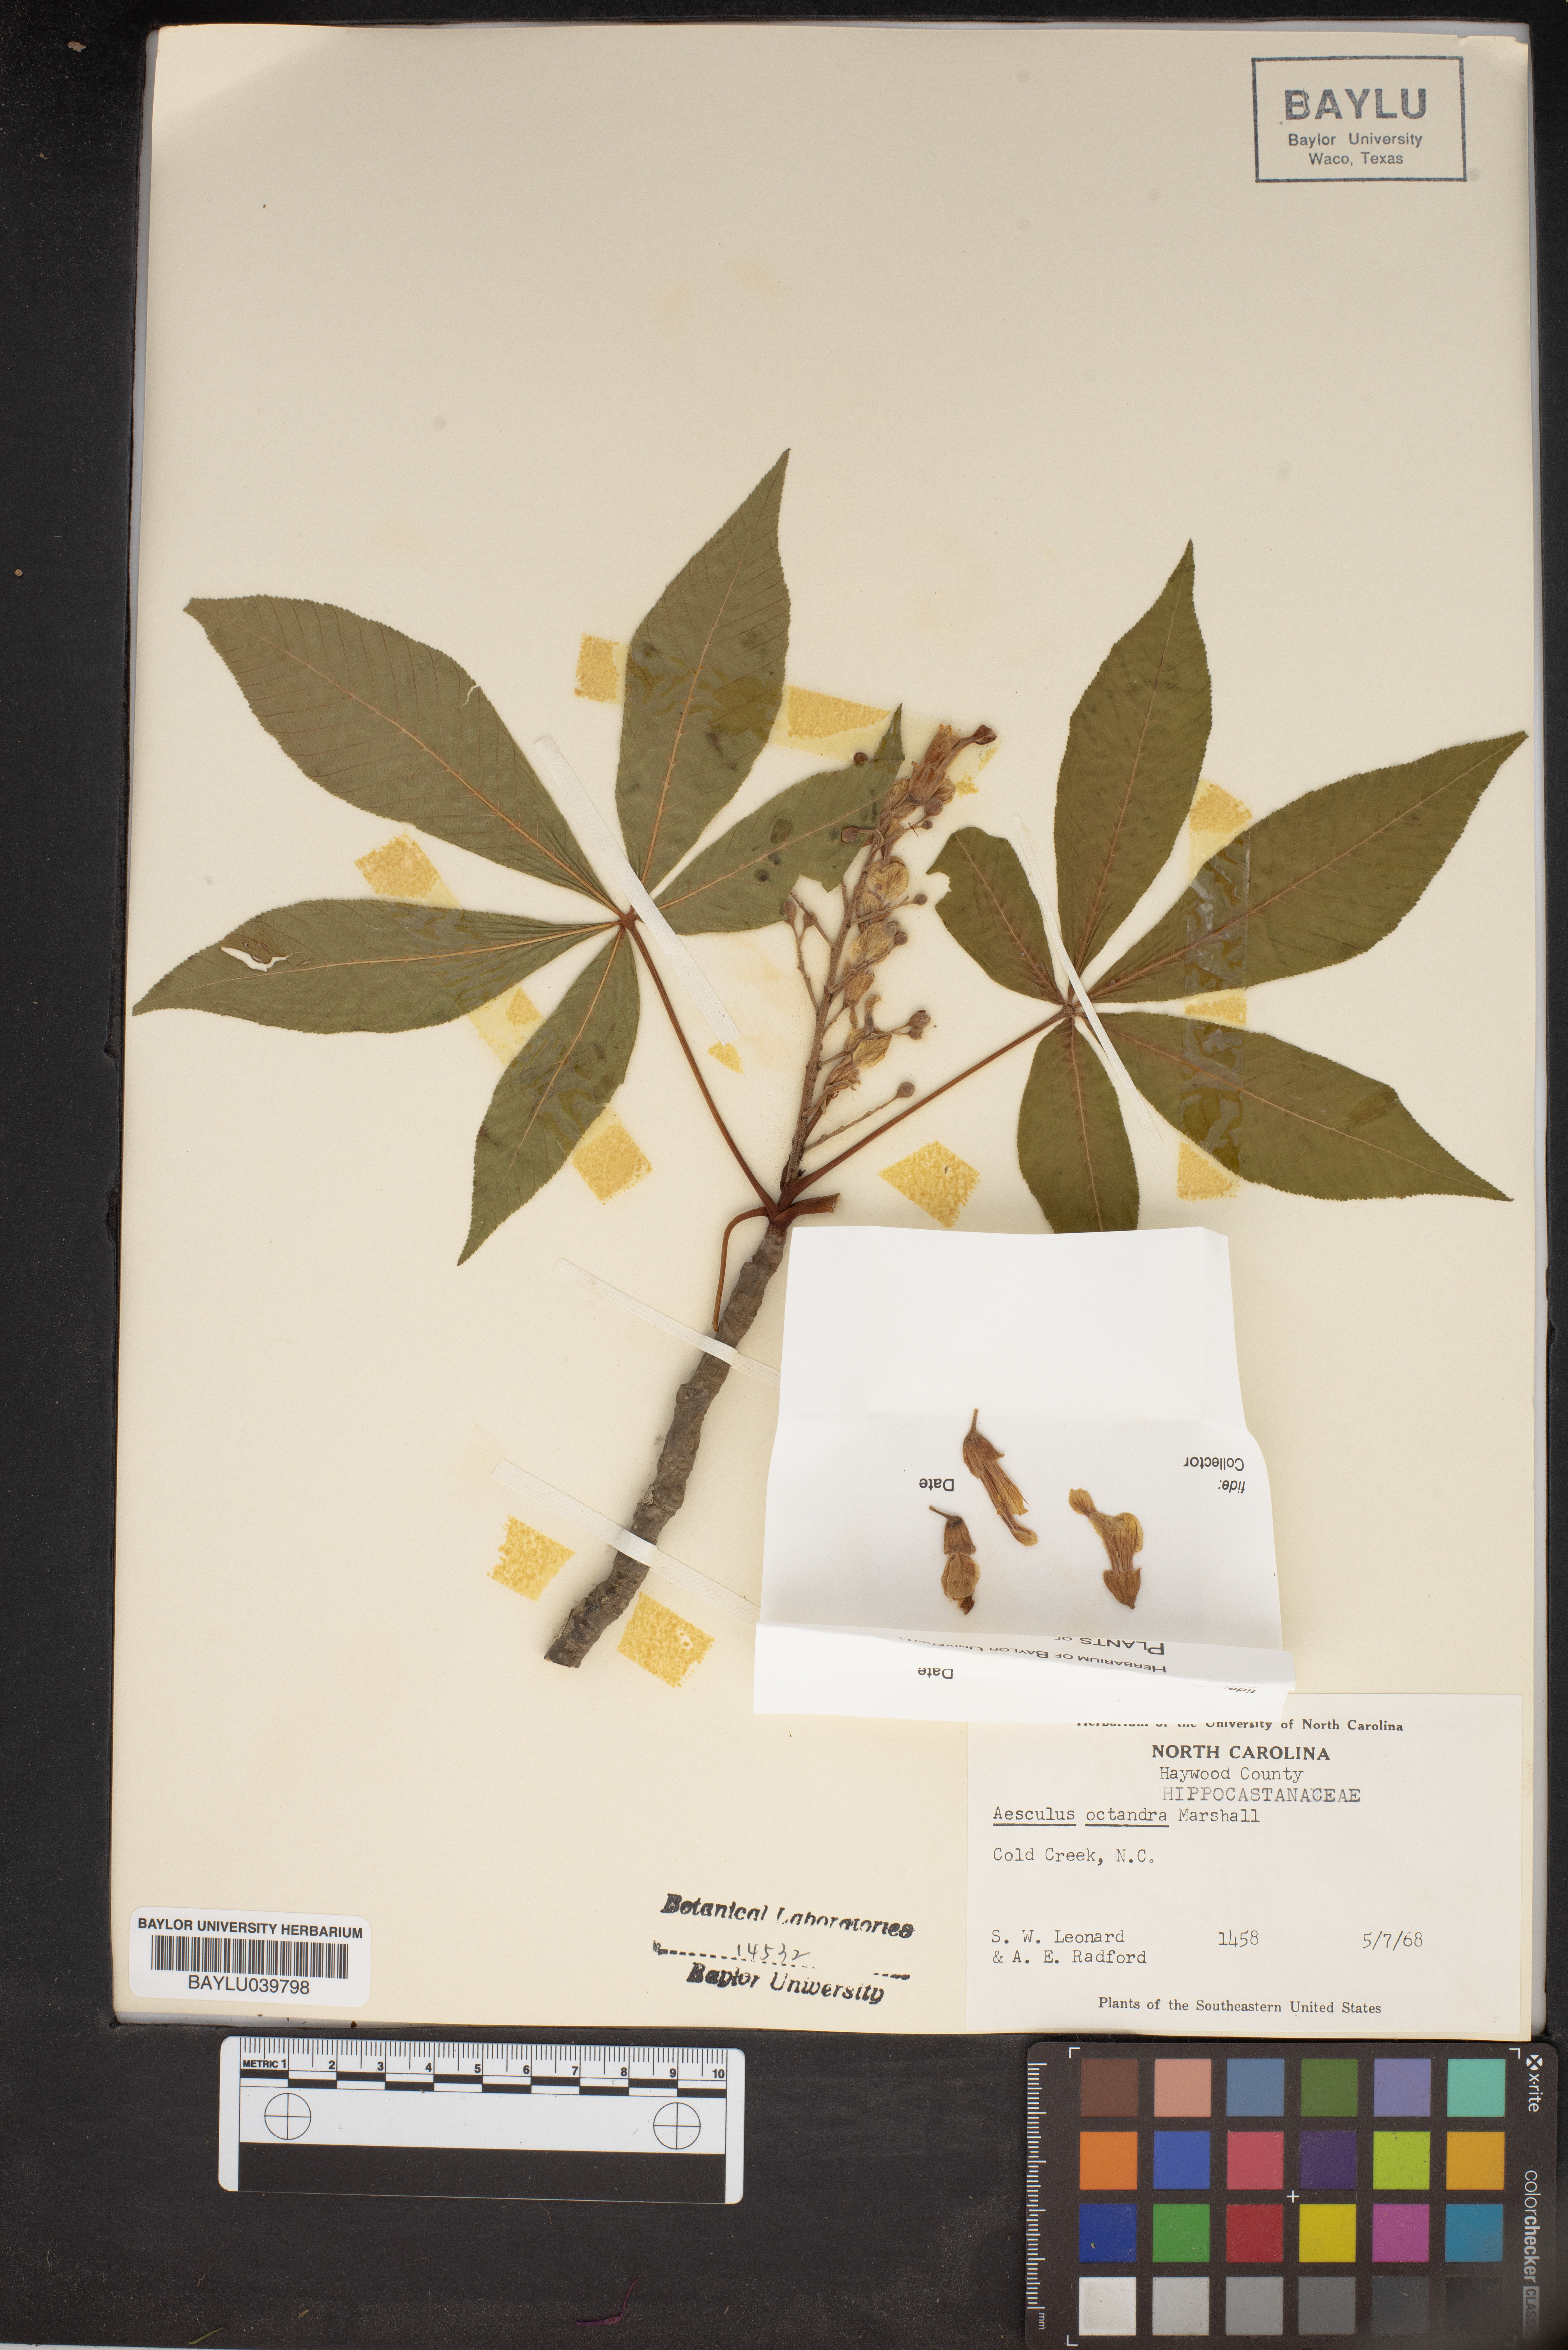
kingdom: Plantae
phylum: Tracheophyta
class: Magnoliopsida
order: Sapindales
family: Sapindaceae
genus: Aesculus
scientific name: Aesculus flava
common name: Yellow buckeye
